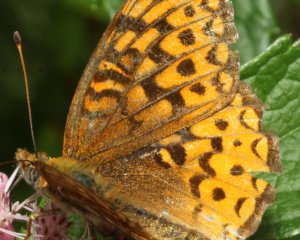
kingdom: Animalia
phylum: Arthropoda
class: Insecta
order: Lepidoptera
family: Nymphalidae
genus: Speyeria
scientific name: Speyeria atlantis
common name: Atlantis Fritillary
